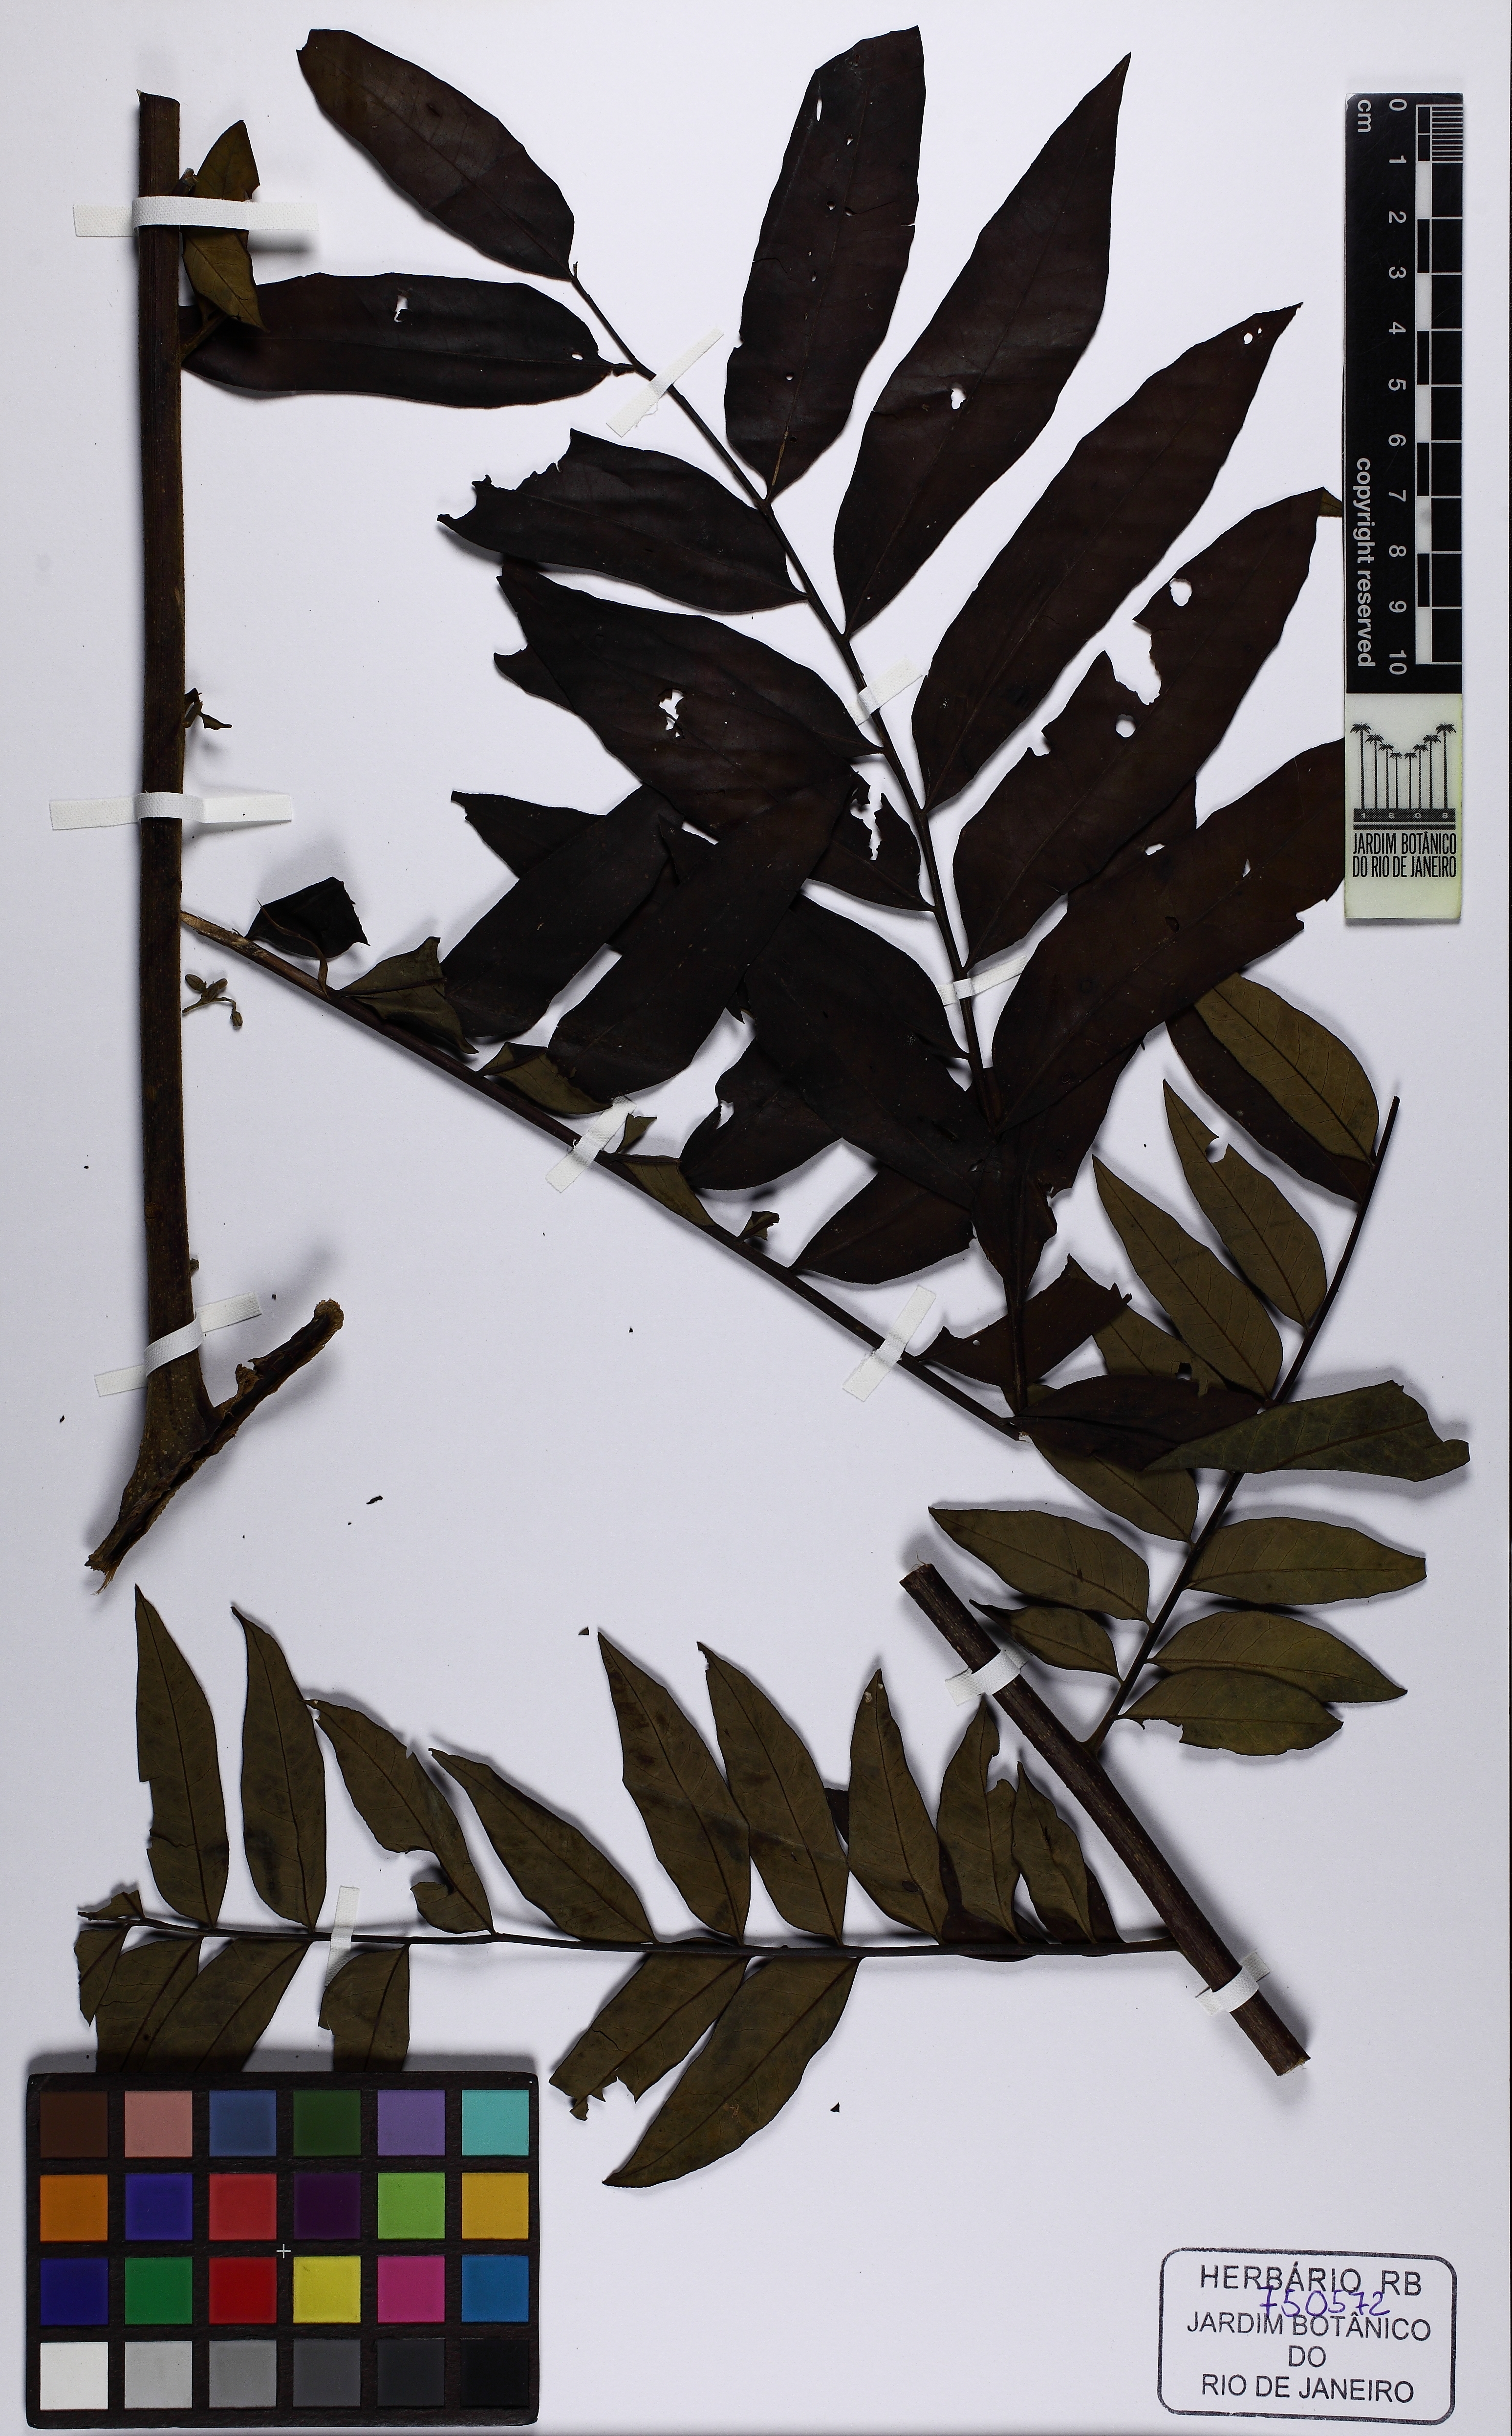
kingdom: Plantae
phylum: Tracheophyta
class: Magnoliopsida
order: Sapindales
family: Rutaceae
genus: Dictyoloma
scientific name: Dictyoloma vandellianum
